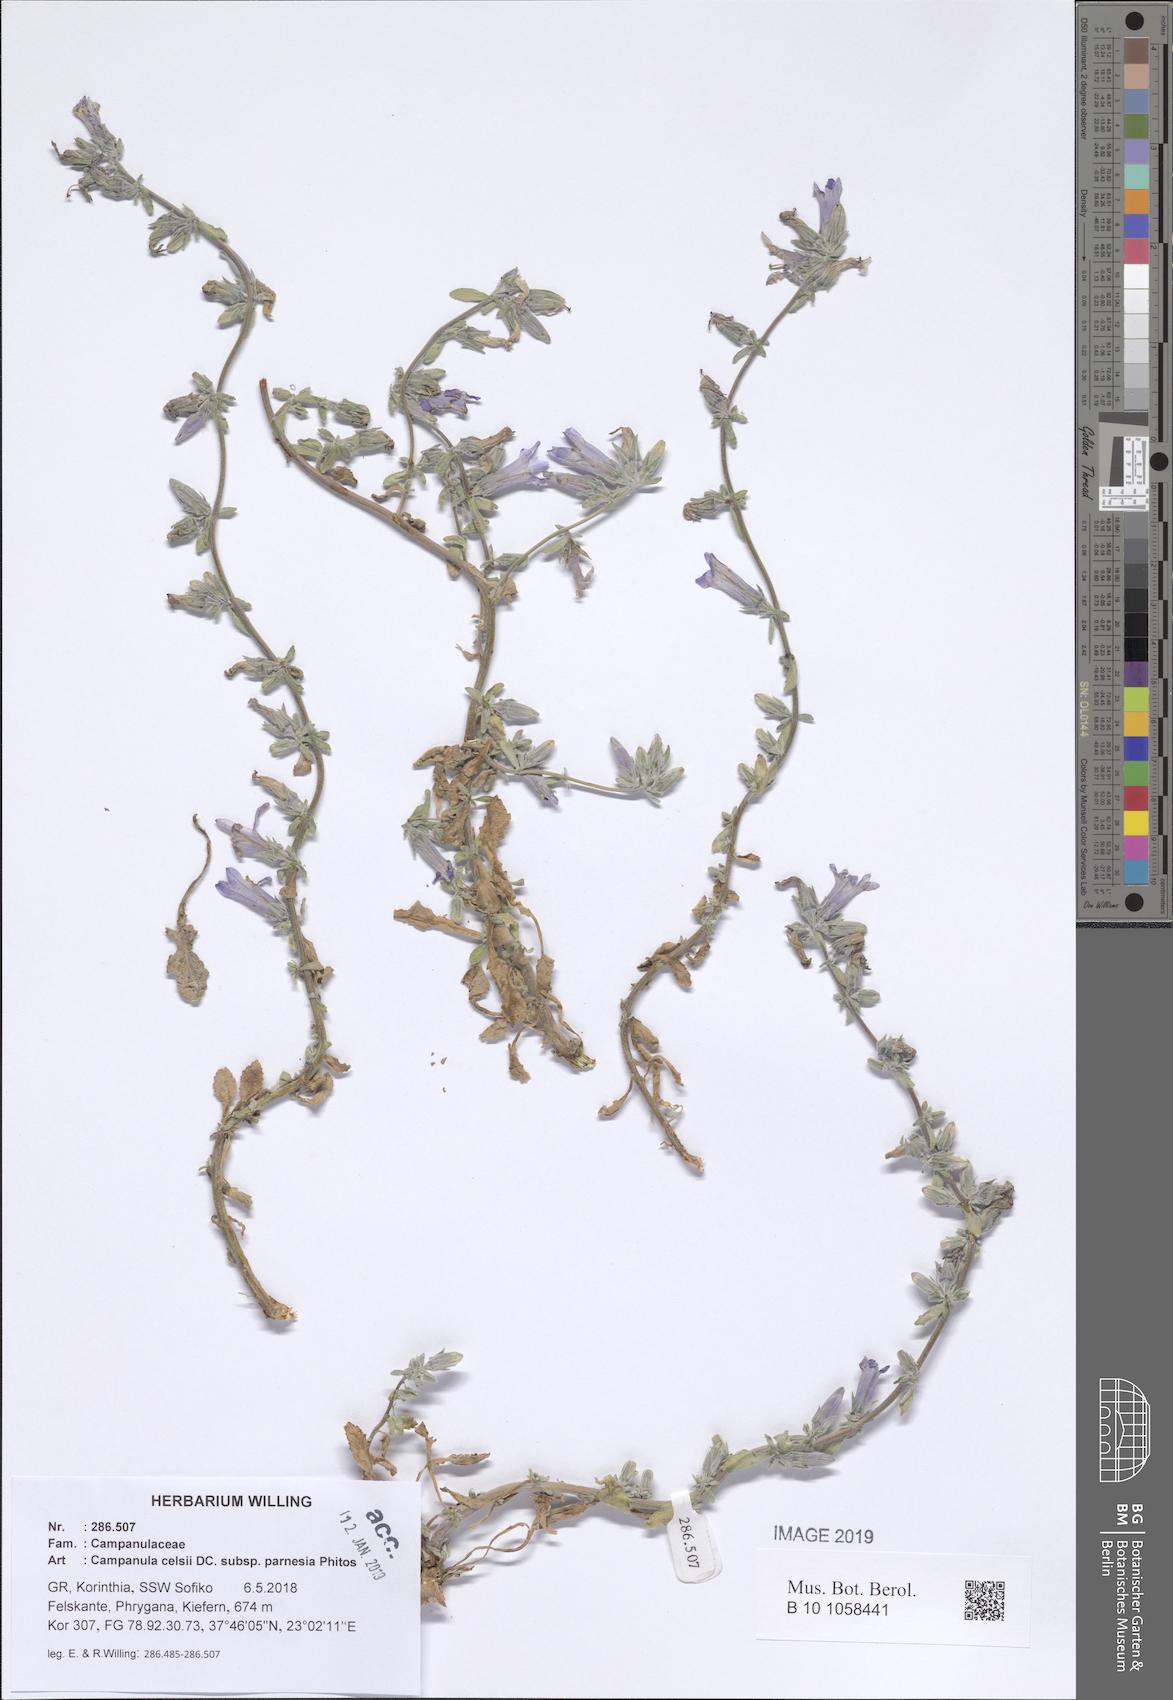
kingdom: Plantae
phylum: Tracheophyta
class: Magnoliopsida
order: Asterales
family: Campanulaceae
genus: Campanula
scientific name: Campanula celsii
